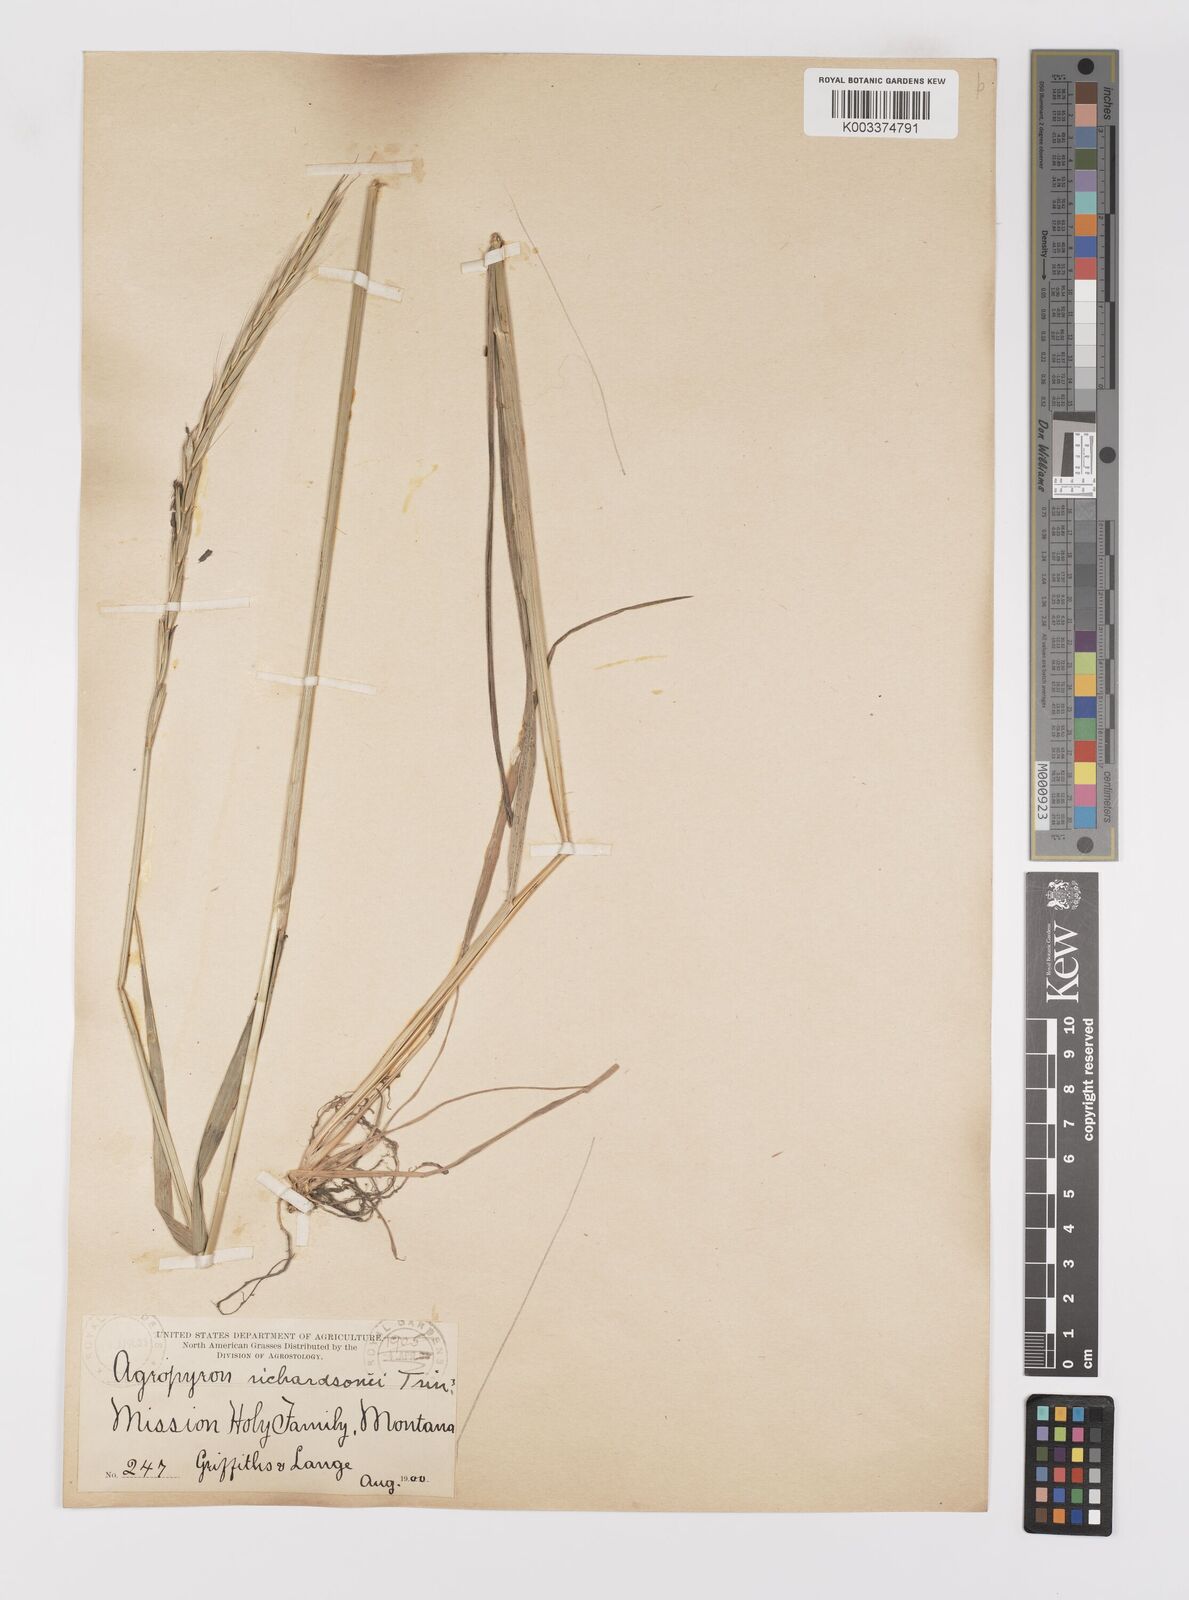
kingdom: Plantae
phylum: Tracheophyta
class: Liliopsida
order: Poales
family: Poaceae
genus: Elymus
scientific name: Elymus violaceus
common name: Arctic wheatgrass
